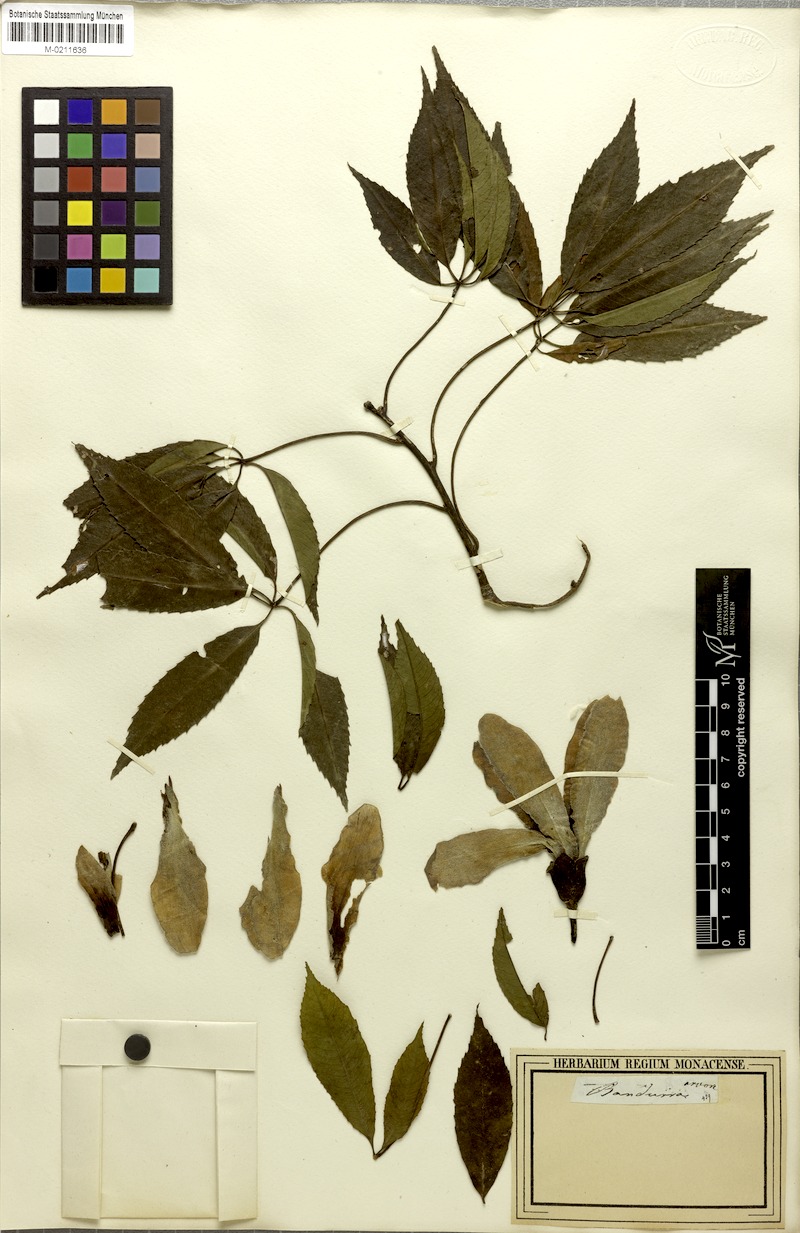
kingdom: Plantae
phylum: Tracheophyta
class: Magnoliopsida
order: Malvales
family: Malvaceae
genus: Ceiba
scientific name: Ceiba speciosa
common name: Silk-floss tree
